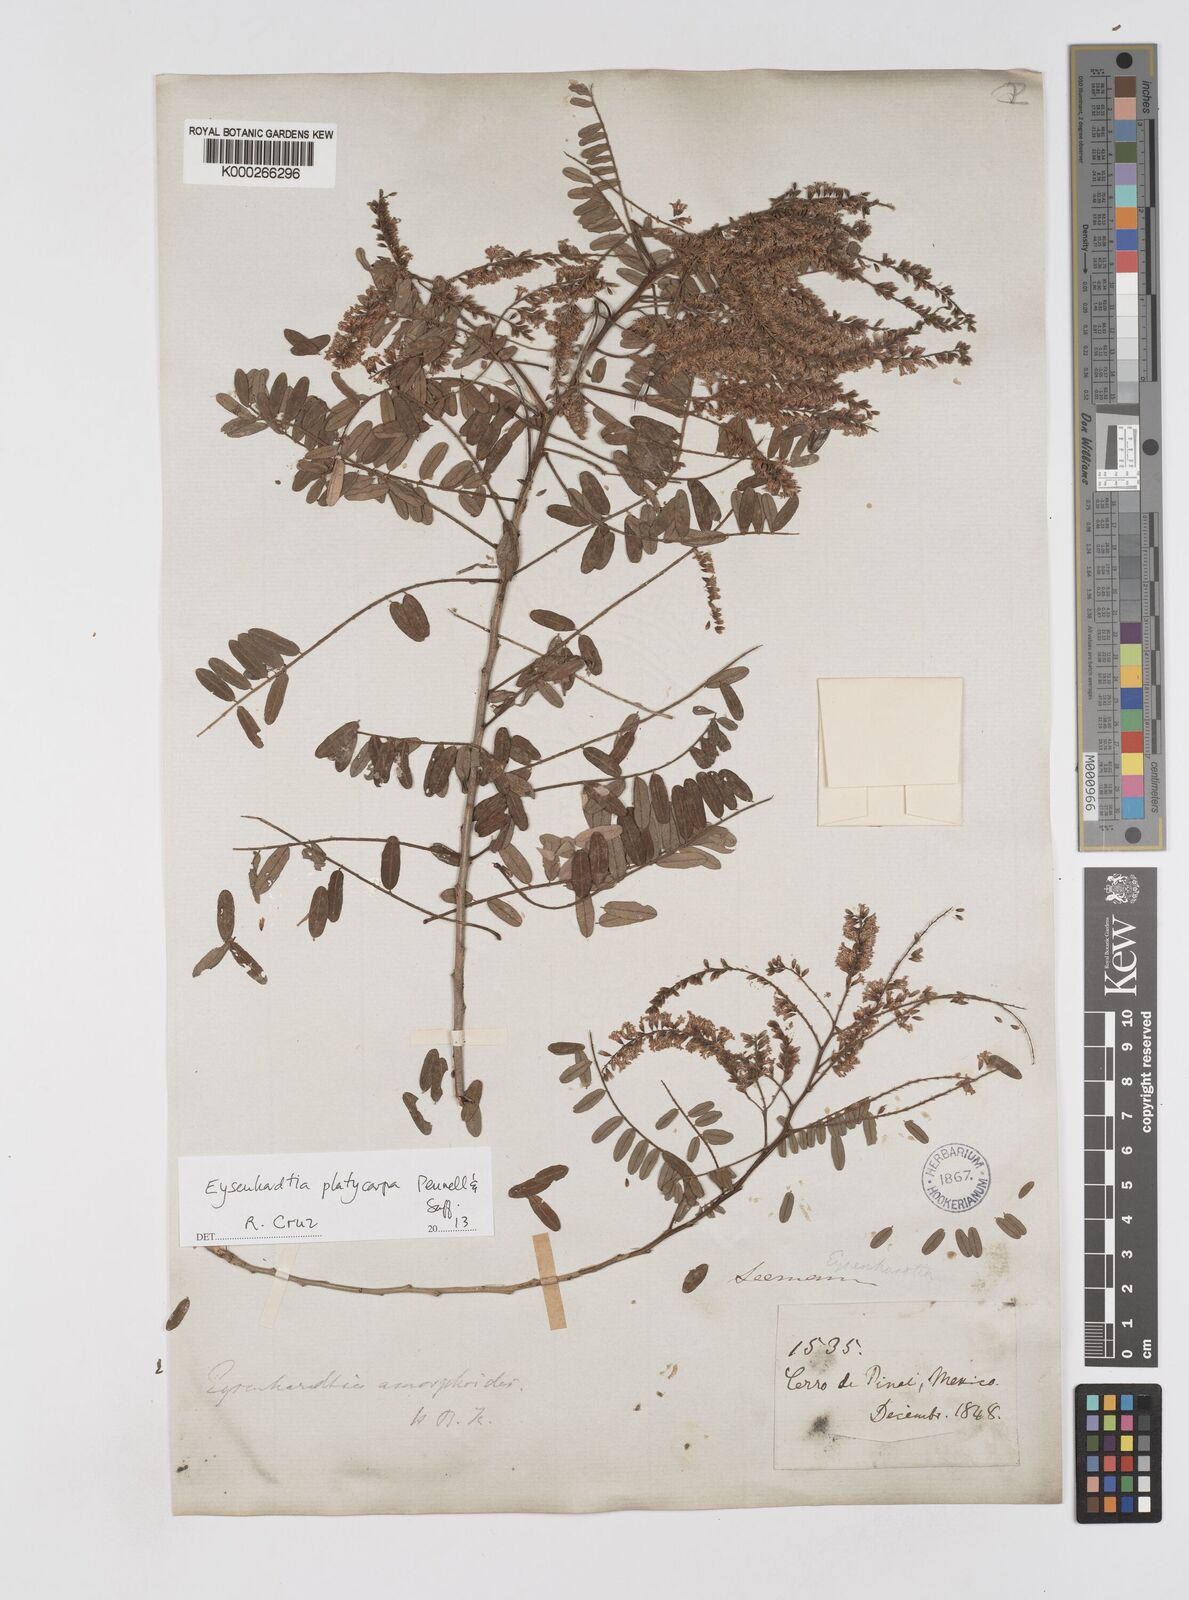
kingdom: Plantae
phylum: Tracheophyta
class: Magnoliopsida
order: Fabales
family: Fabaceae
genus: Eysenhardtia
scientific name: Eysenhardtia platycarpa
